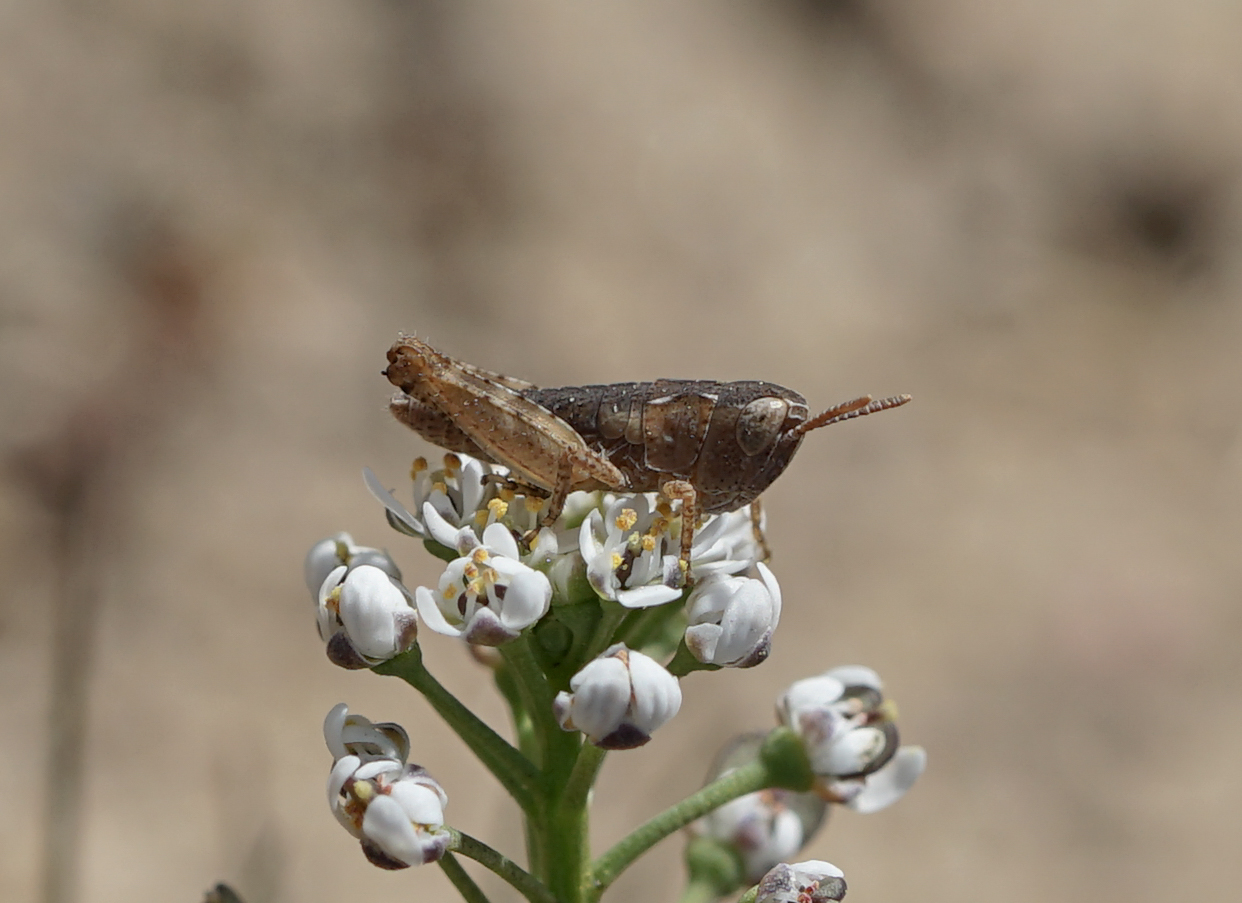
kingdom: Animalia
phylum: Arthropoda
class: Insecta
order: Orthoptera
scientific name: Orthoptera
